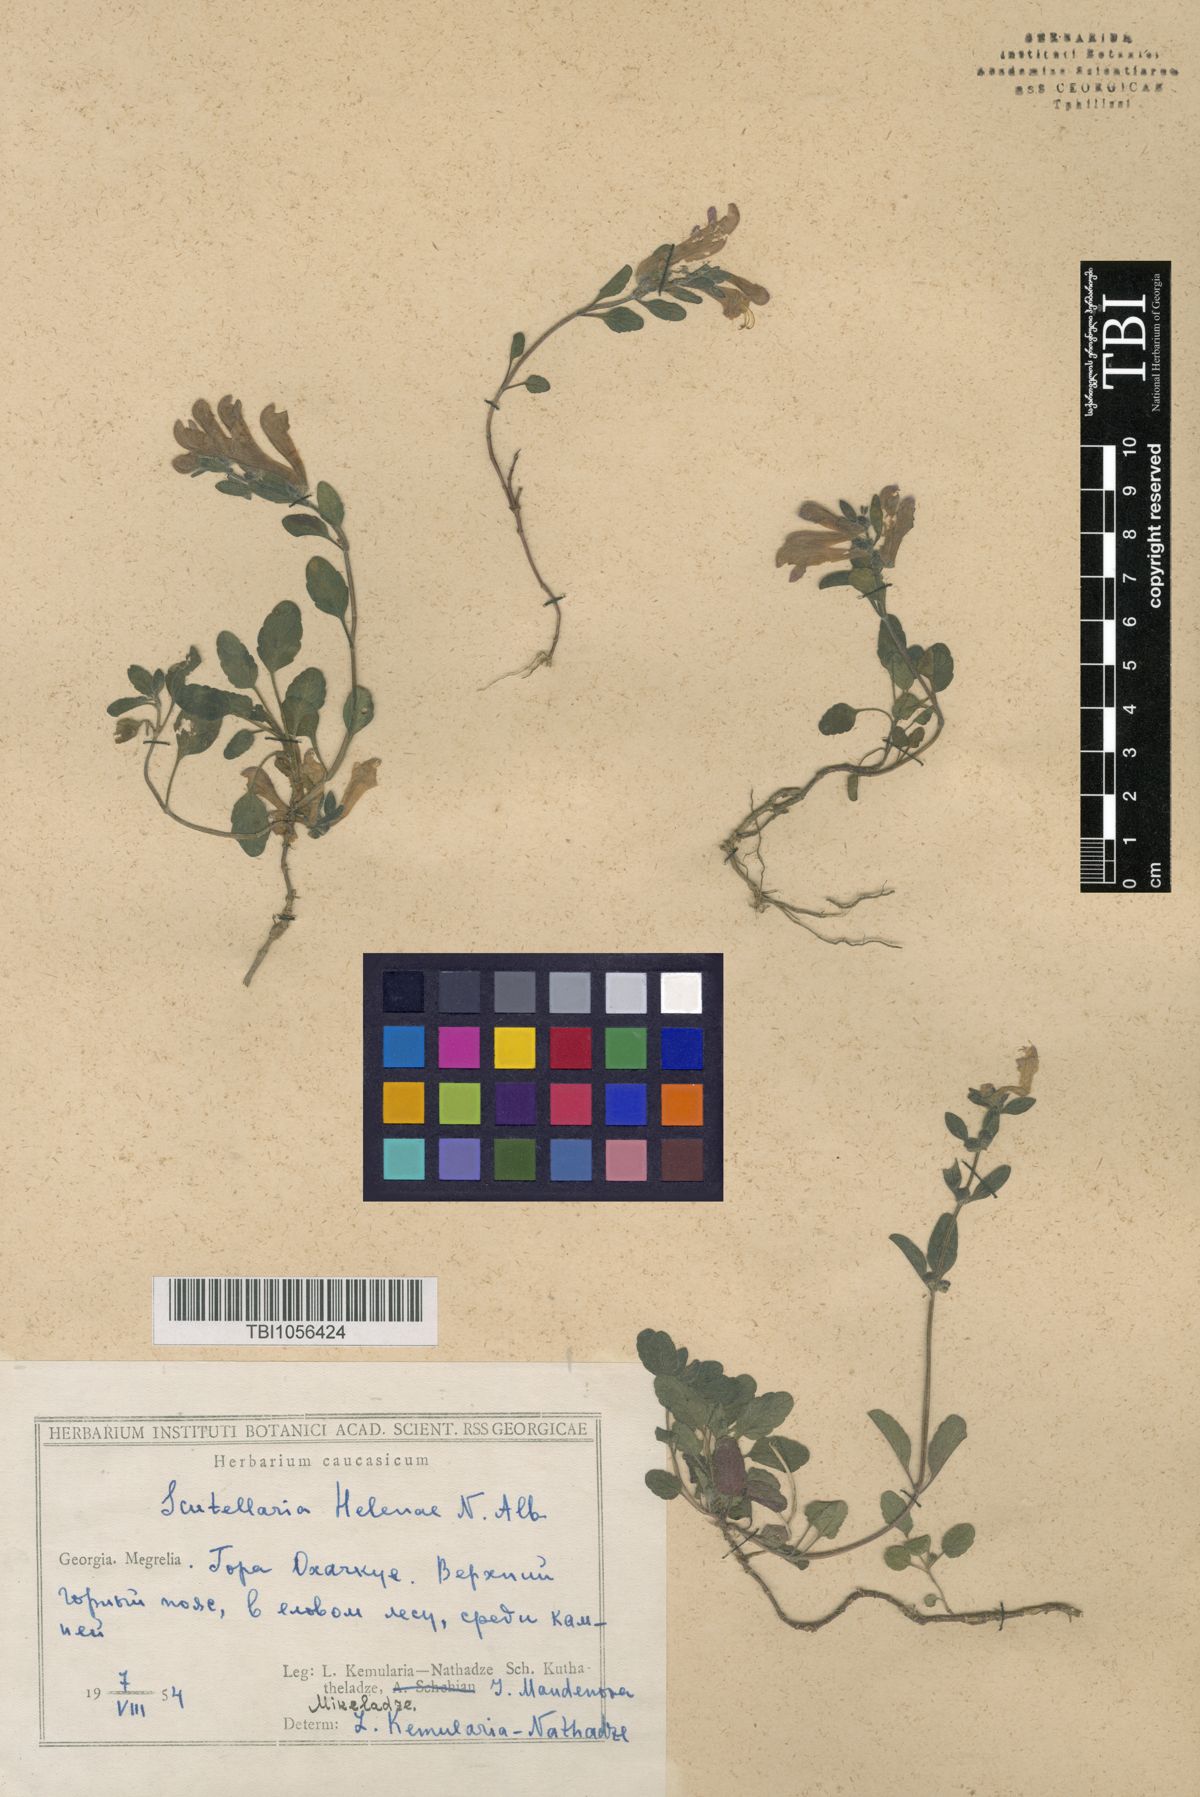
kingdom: Plantae
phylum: Tracheophyta
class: Magnoliopsida
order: Lamiales
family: Lamiaceae
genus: Scutellaria
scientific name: Scutellaria helenae
